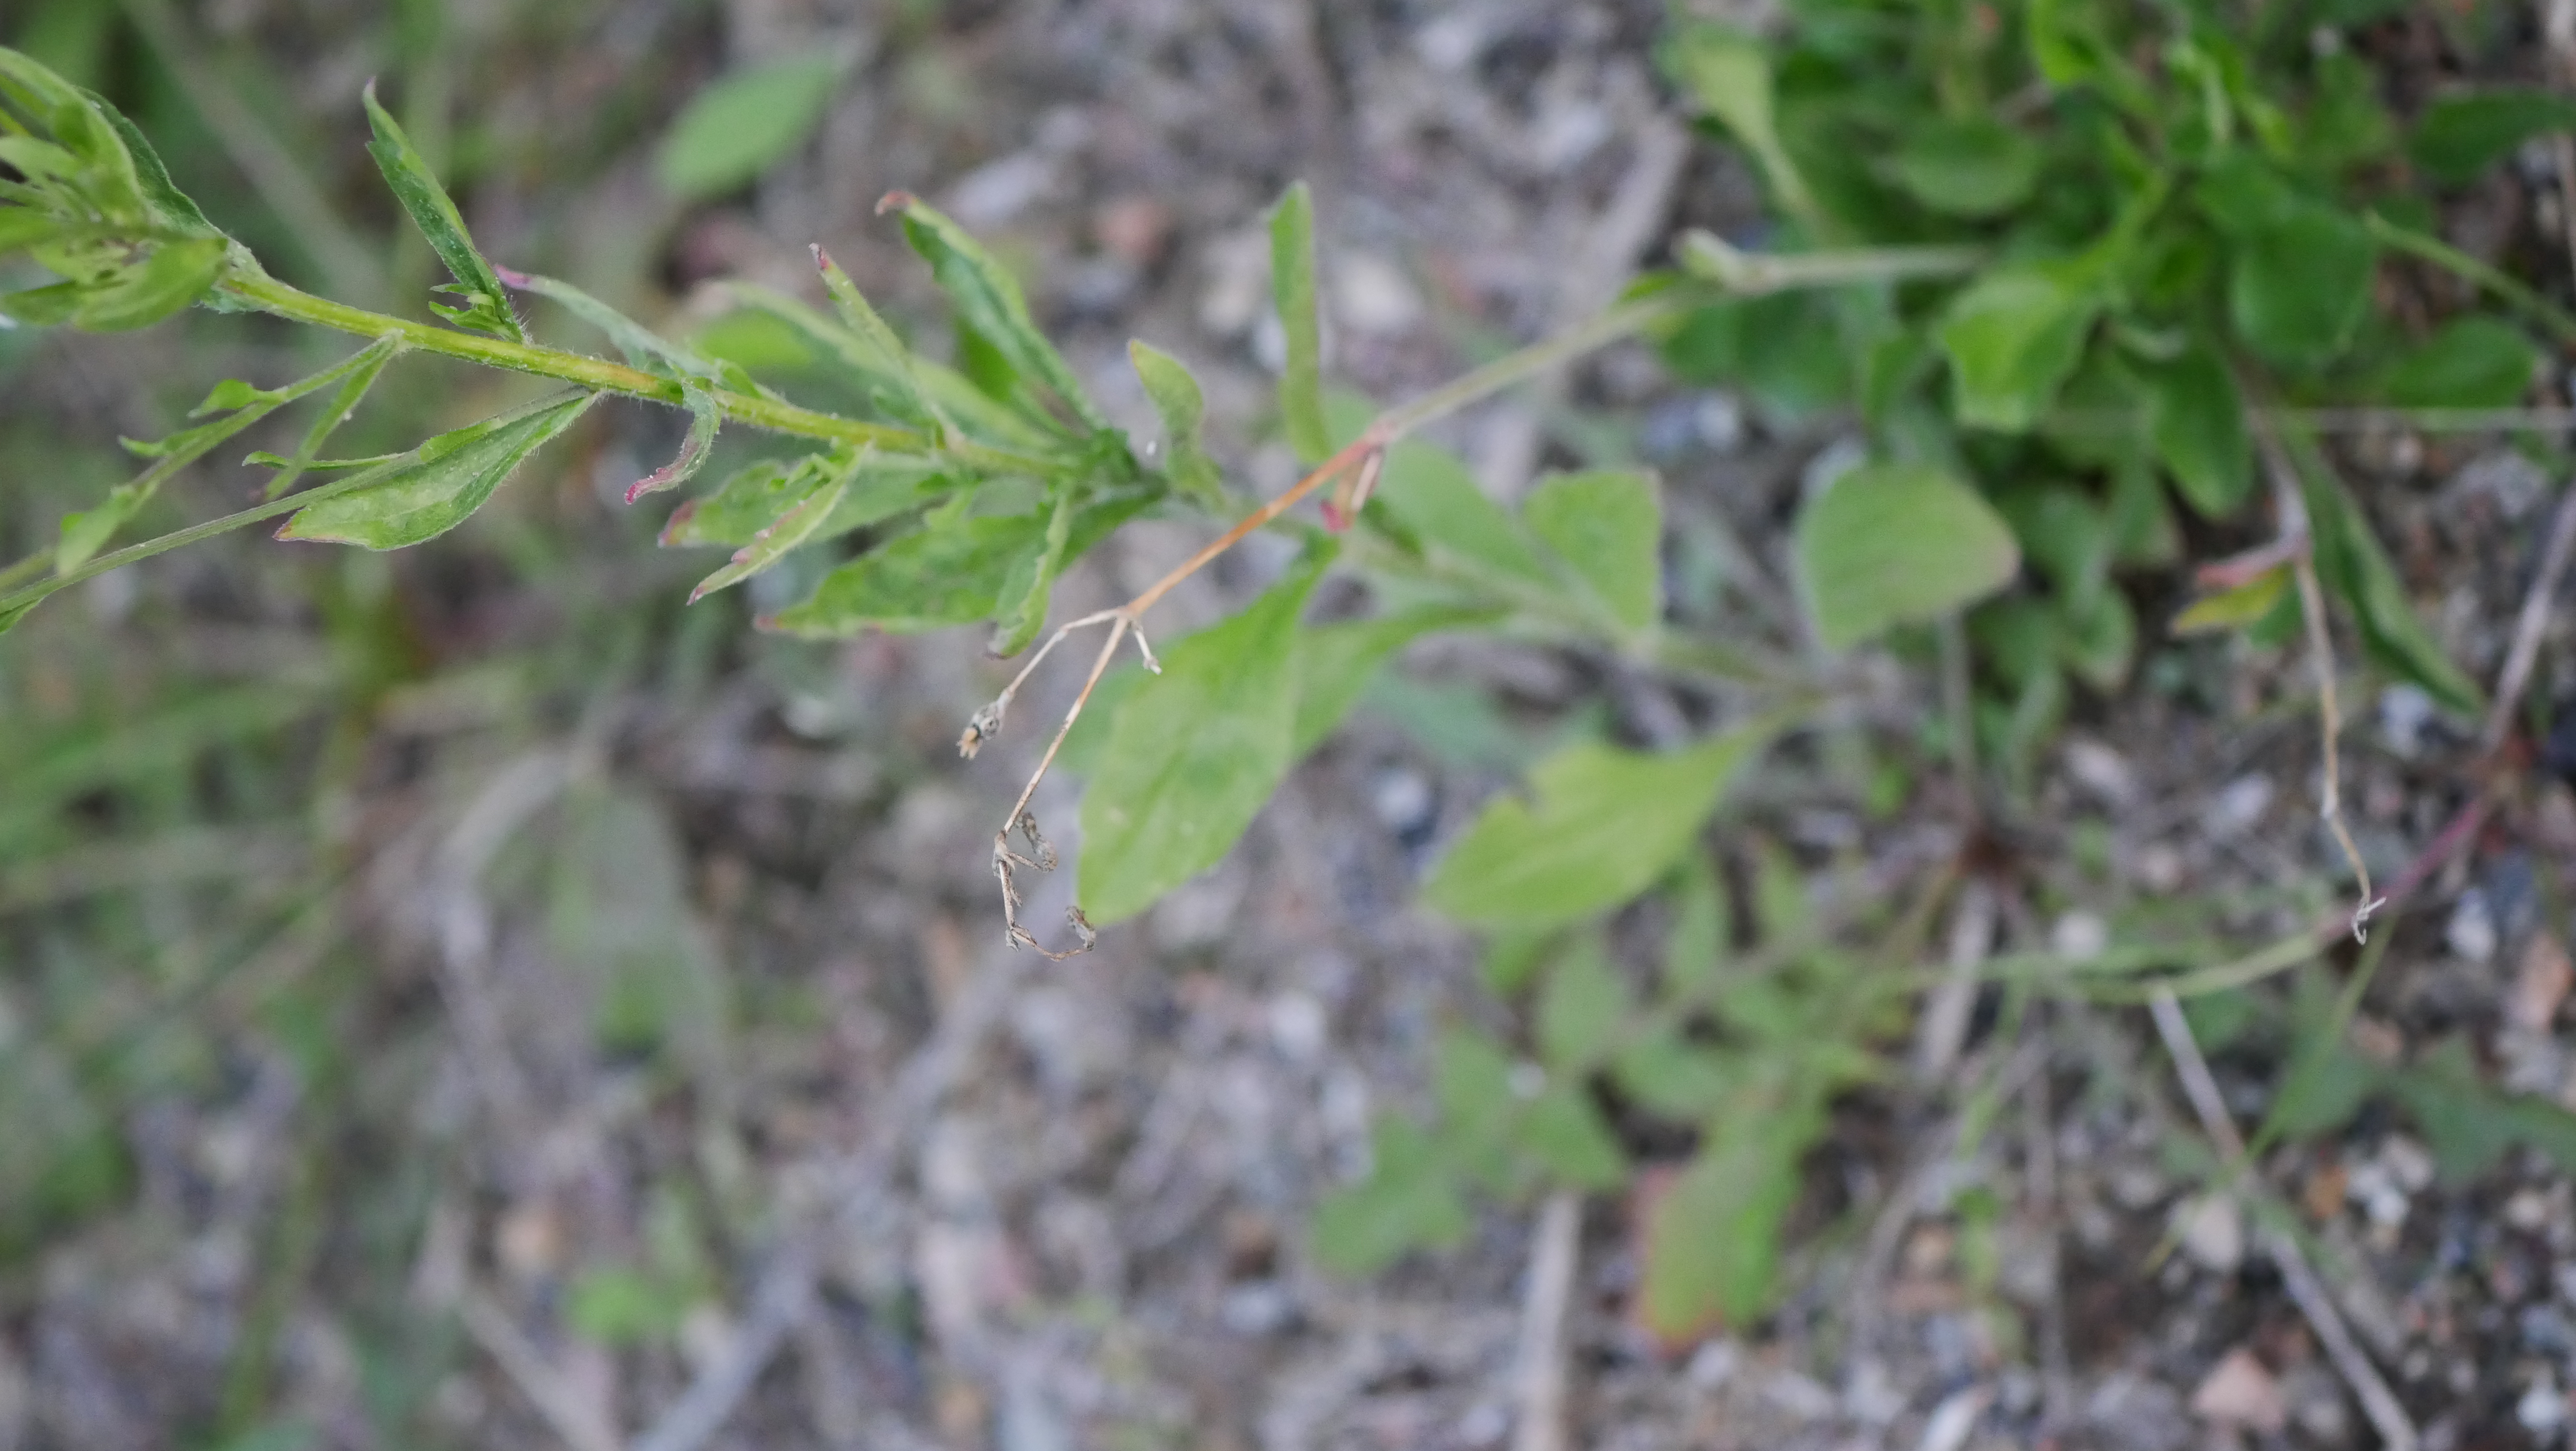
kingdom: Plantae
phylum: Tracheophyta
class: Magnoliopsida
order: Asterales
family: Asteraceae
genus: Erigeron
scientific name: Erigeron annuus
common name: Smalstråle
